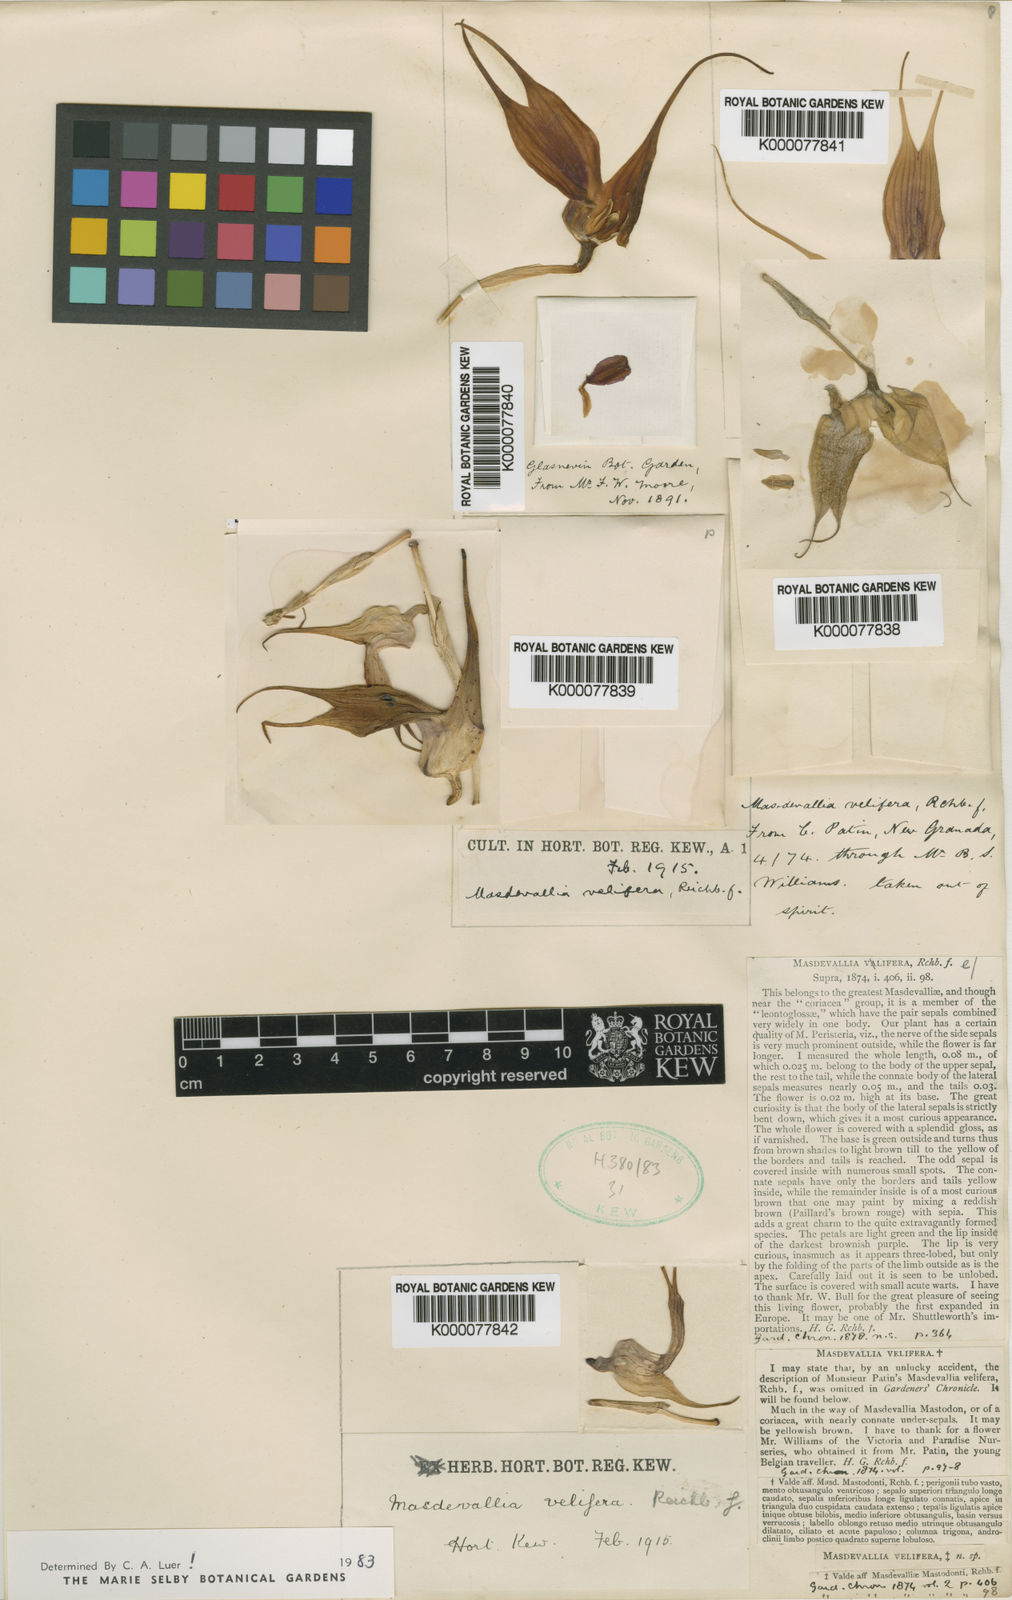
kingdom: Plantae
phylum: Tracheophyta
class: Liliopsida
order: Asparagales
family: Orchidaceae
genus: Masdevallia
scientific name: Masdevallia velifera
